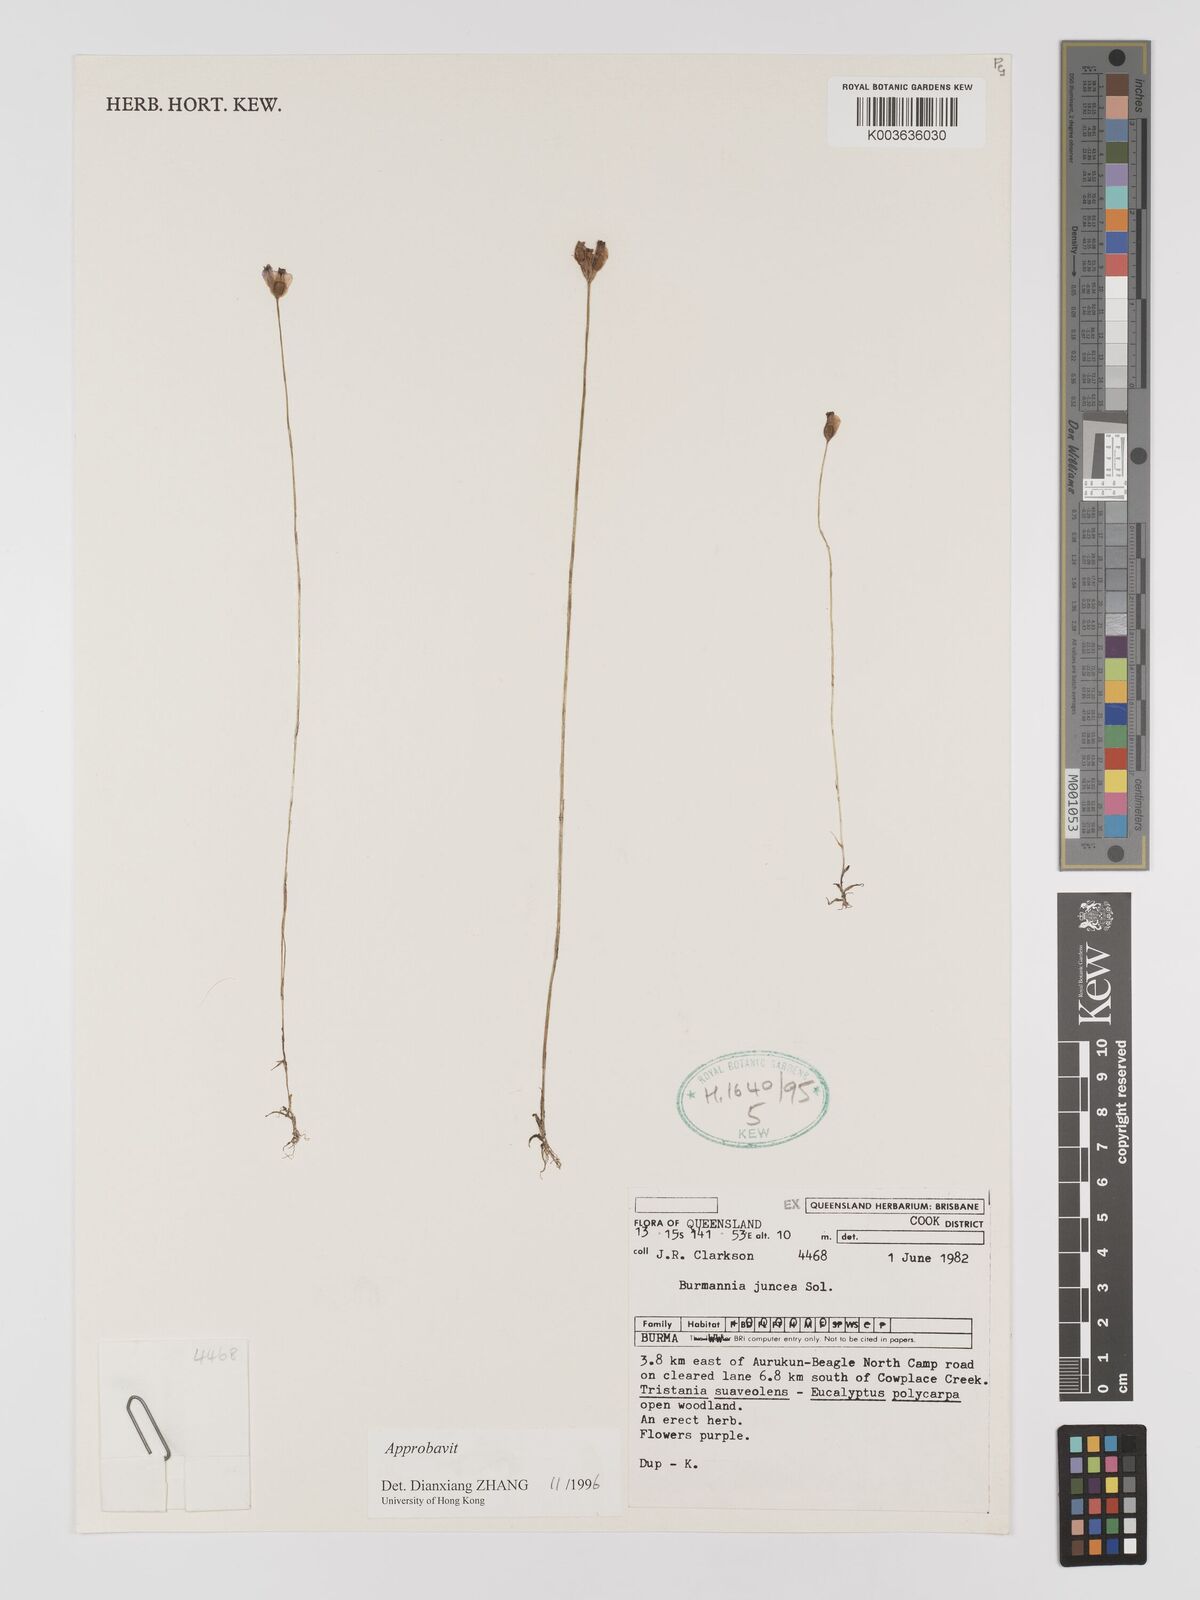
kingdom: Plantae
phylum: Tracheophyta
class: Liliopsida
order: Dioscoreales
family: Burmanniaceae
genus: Burmannia
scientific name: Burmannia juncea
